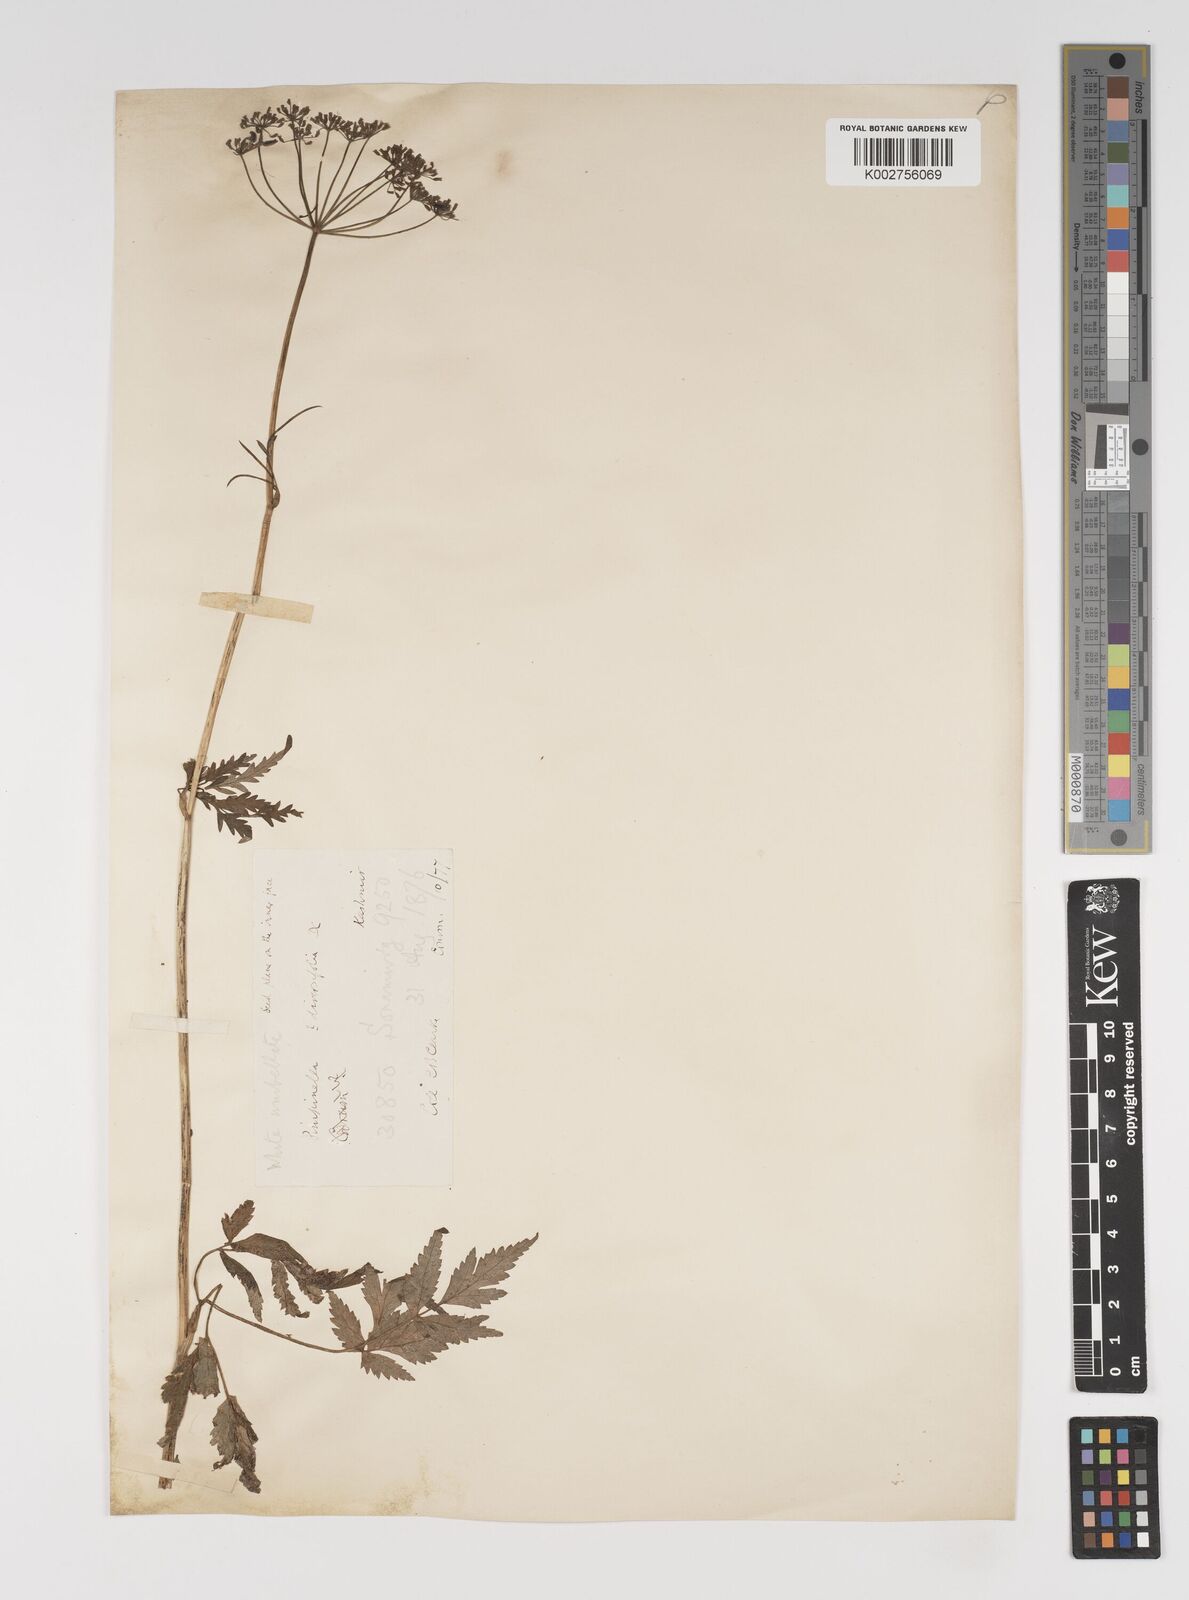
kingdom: Plantae
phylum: Tracheophyta
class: Magnoliopsida
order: Apiales
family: Apiaceae
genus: Pimpinella
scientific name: Pimpinella diversifolia
